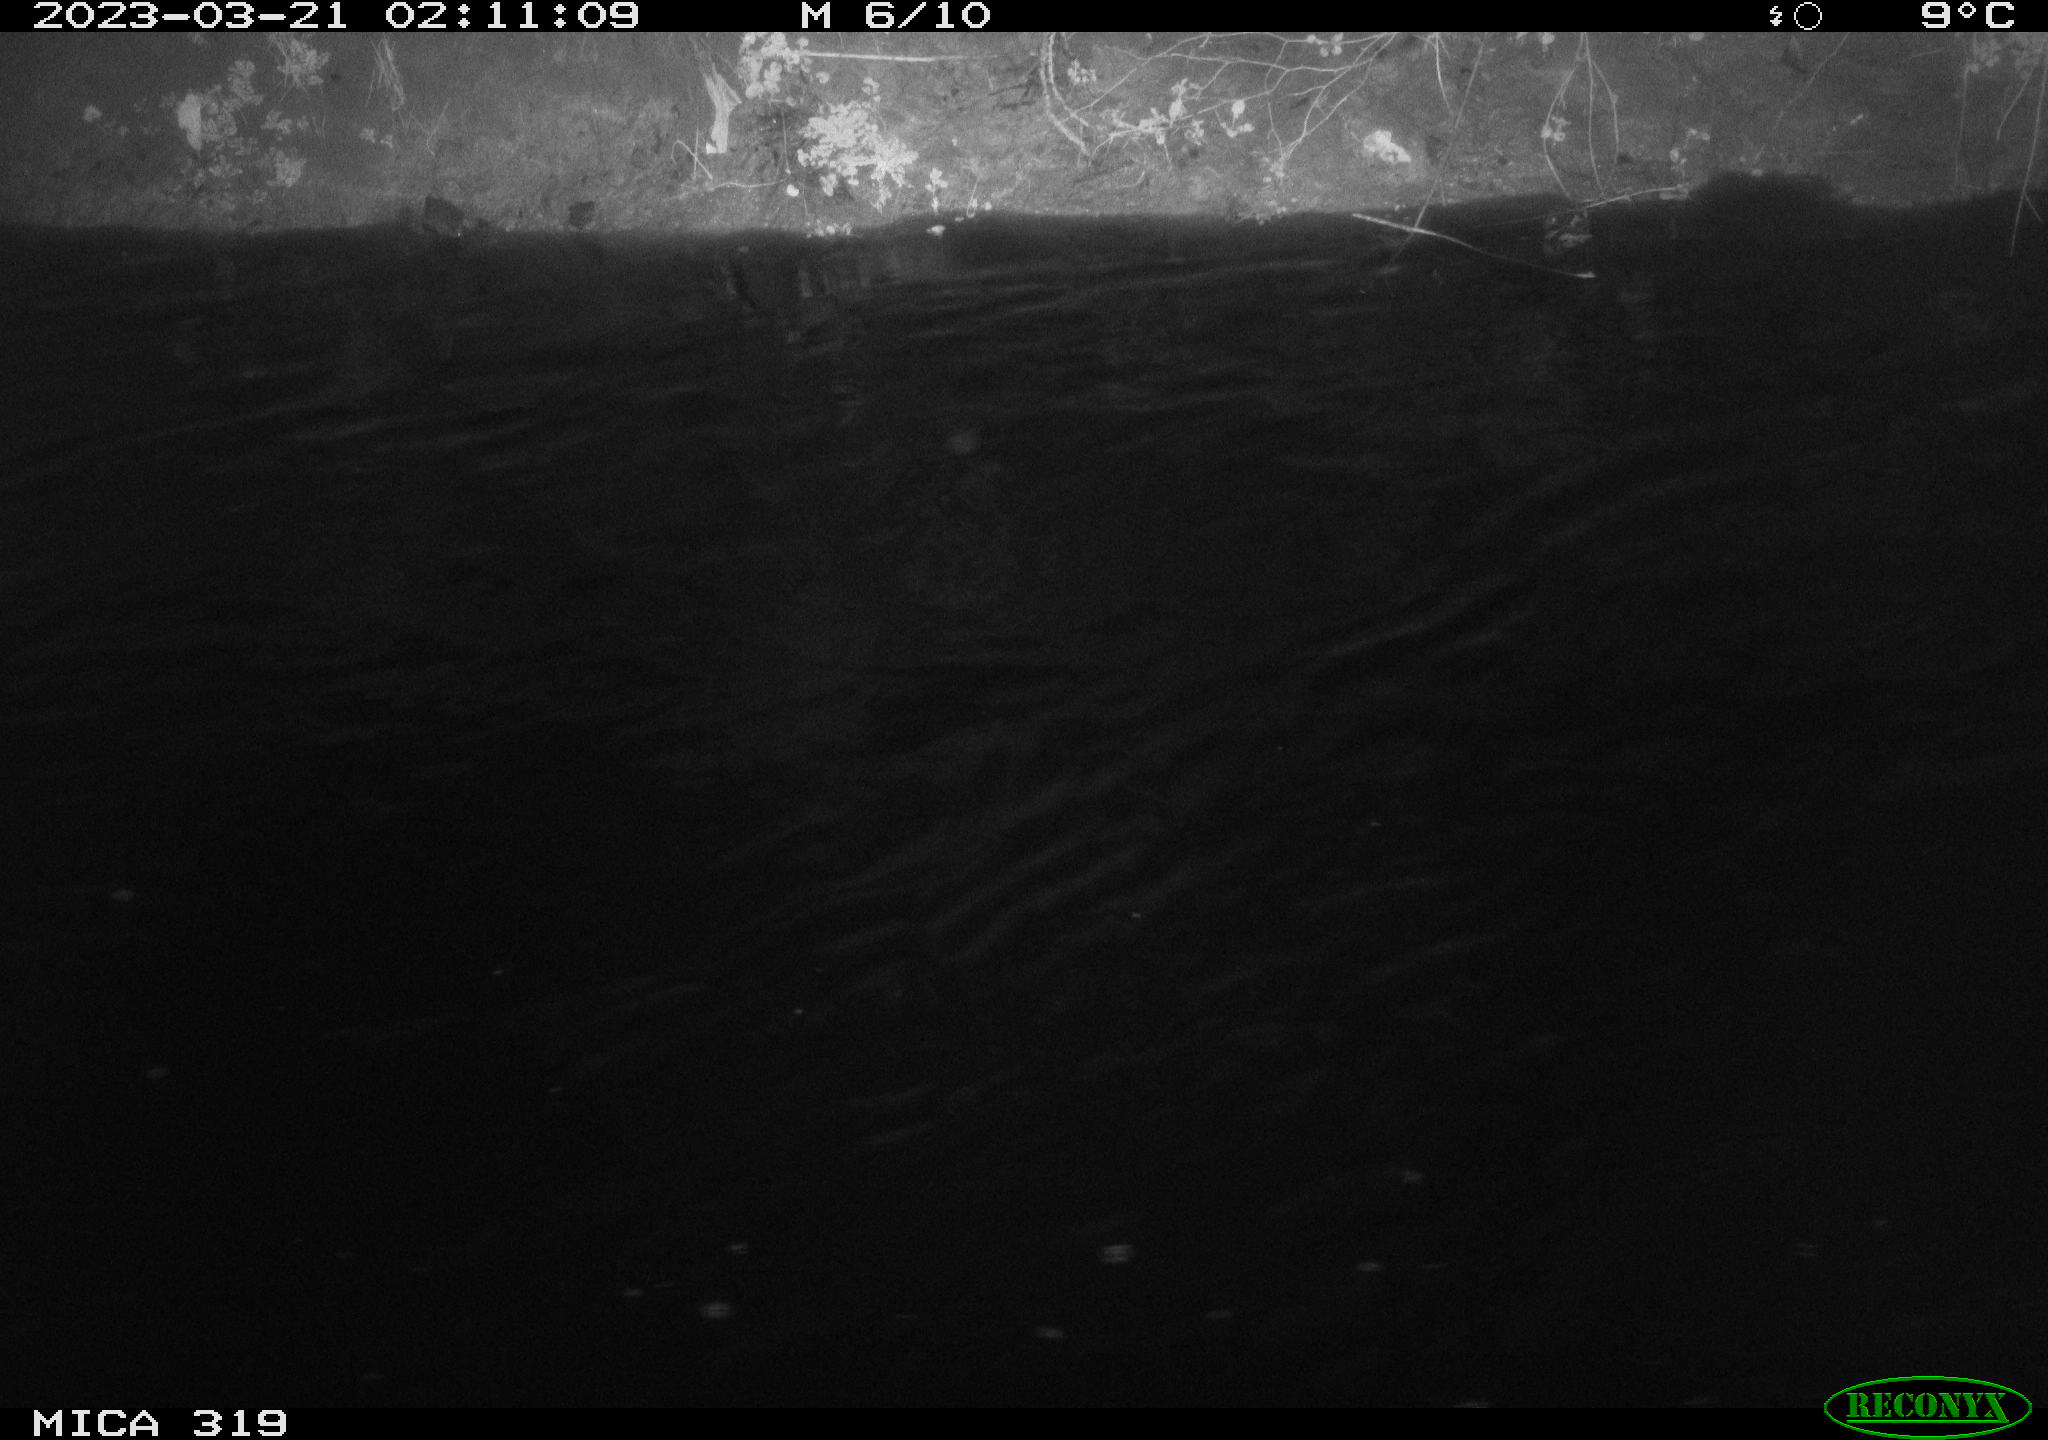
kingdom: Animalia
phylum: Chordata
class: Aves
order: Anseriformes
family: Anatidae
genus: Anas
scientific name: Anas
